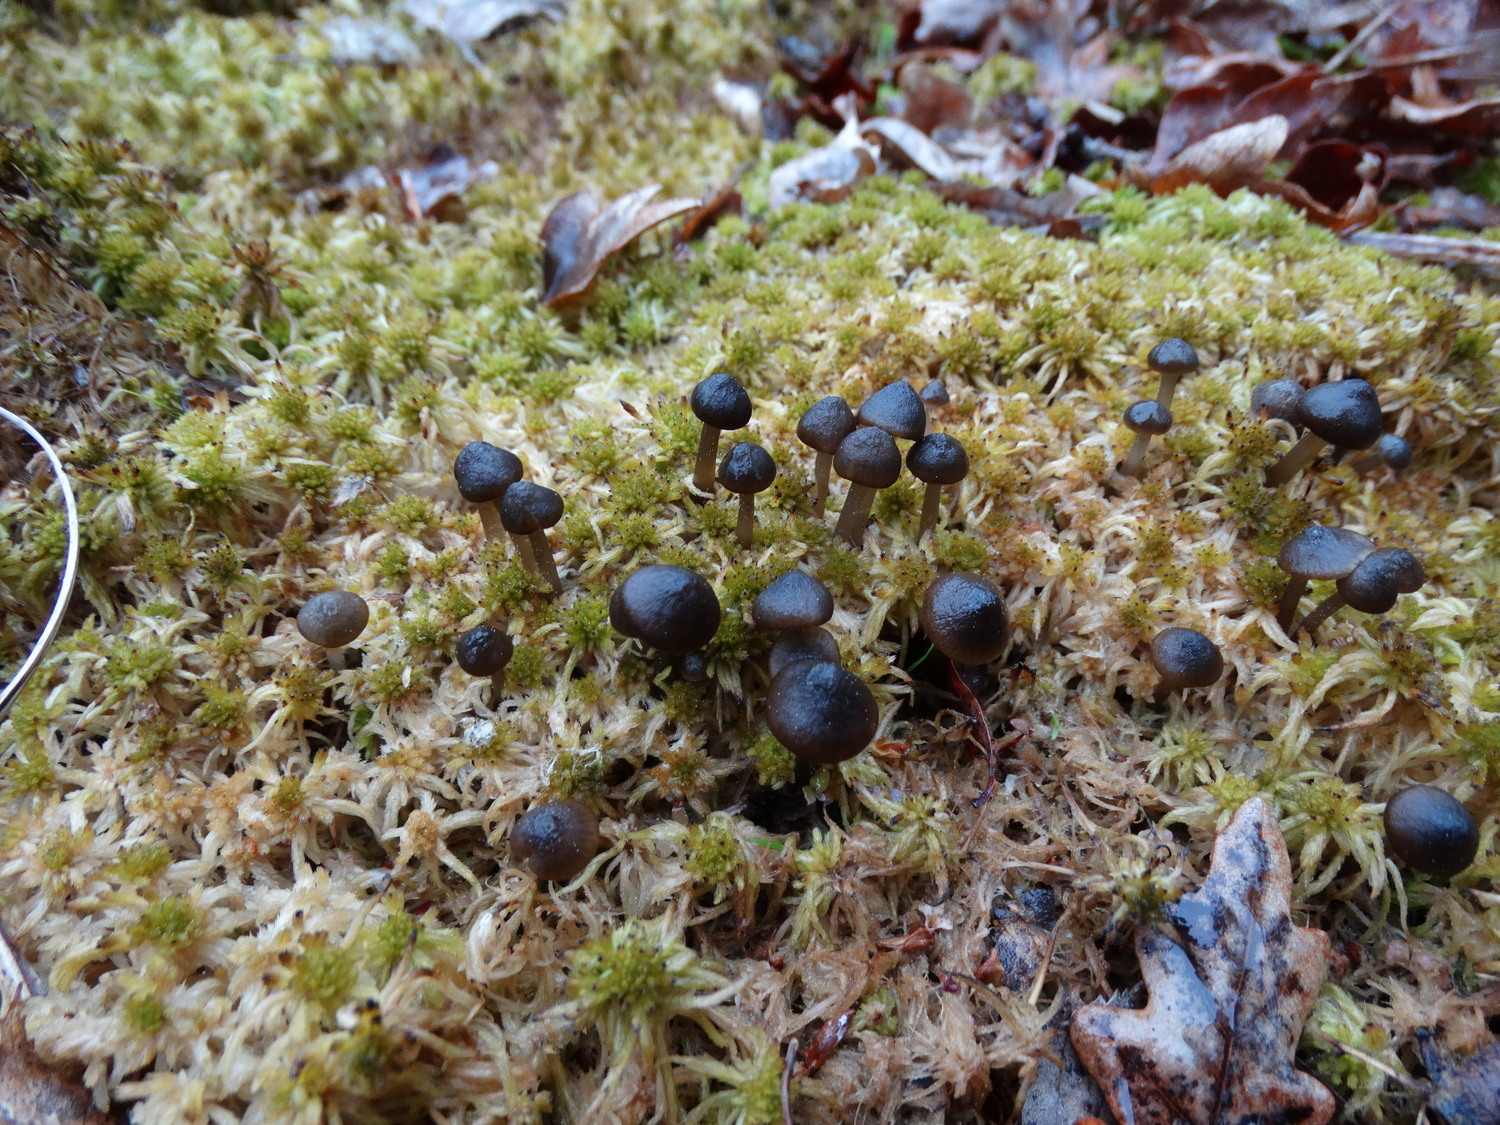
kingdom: Fungi
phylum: Basidiomycota
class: Agaricomycetes
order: Agaricales
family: Lyophyllaceae
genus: Sphagnurus
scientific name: Sphagnurus paluster
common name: tørvemos-gråblad
